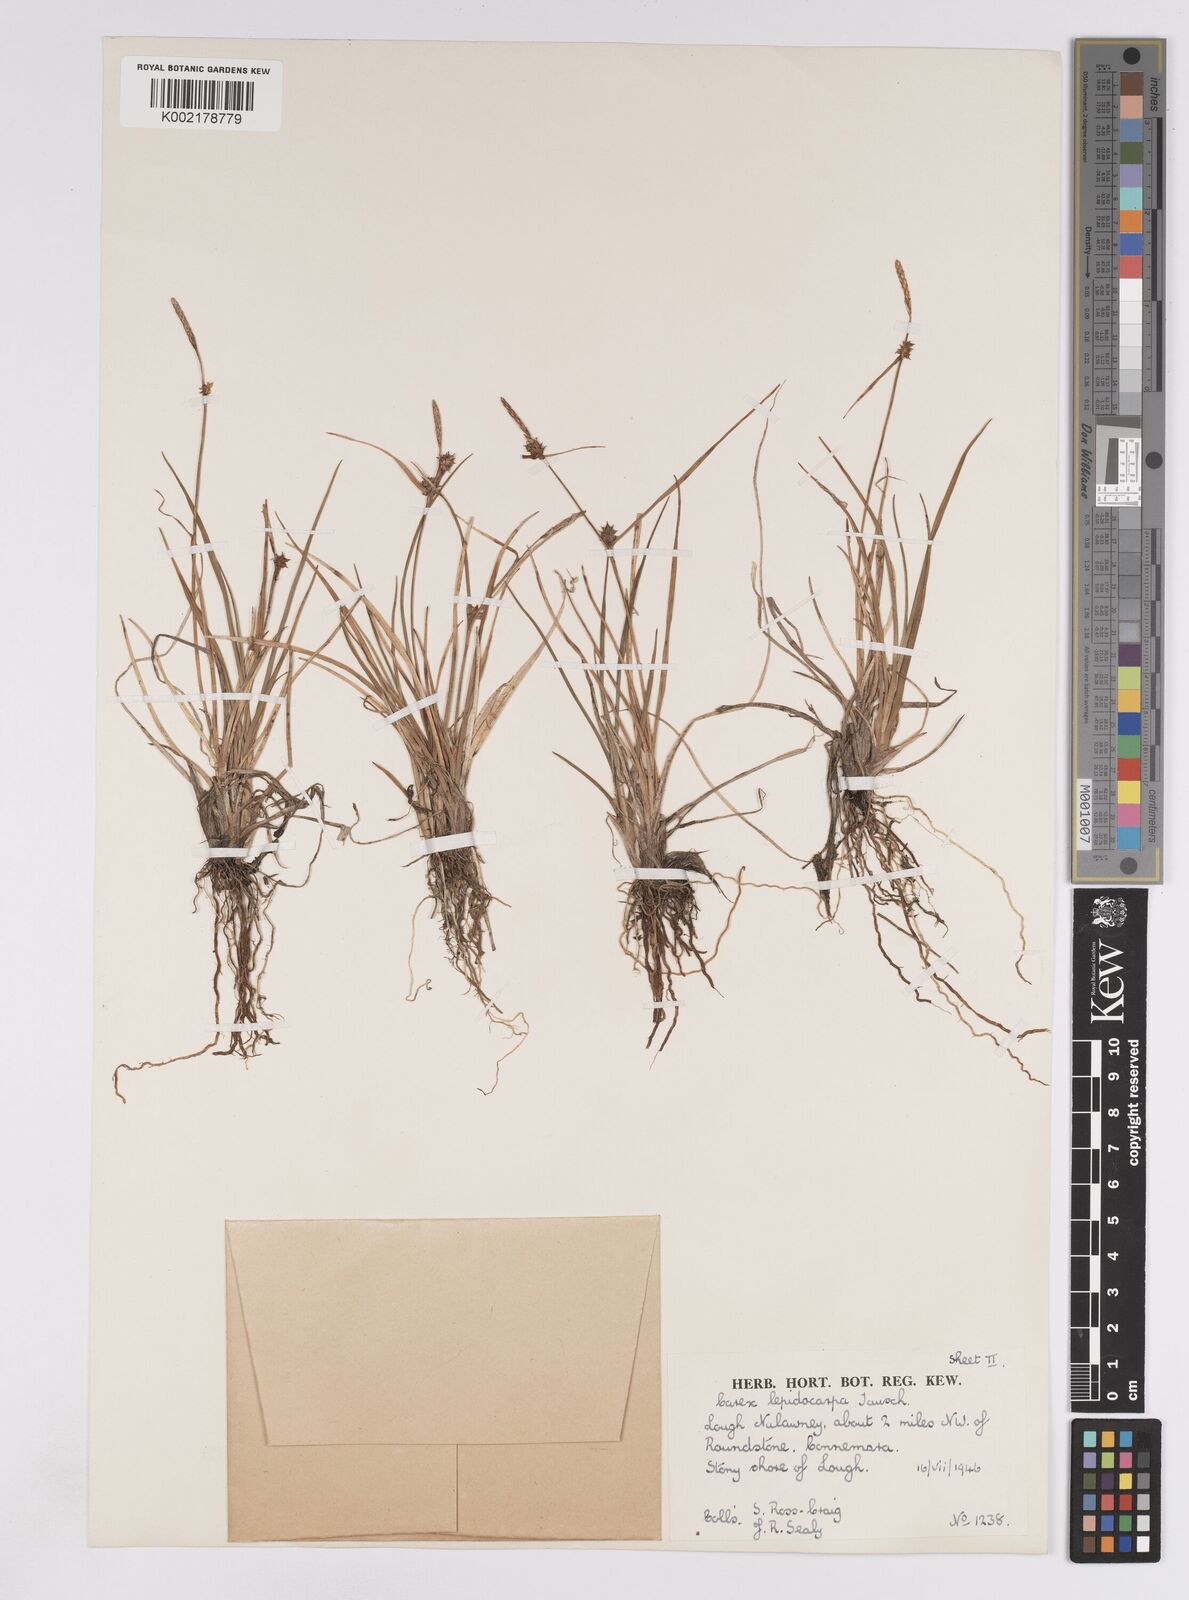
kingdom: Plantae
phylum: Tracheophyta
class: Liliopsida
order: Poales
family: Cyperaceae
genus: Carex
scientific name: Carex lepidocarpa
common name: Long-stalked yellow-sedge
